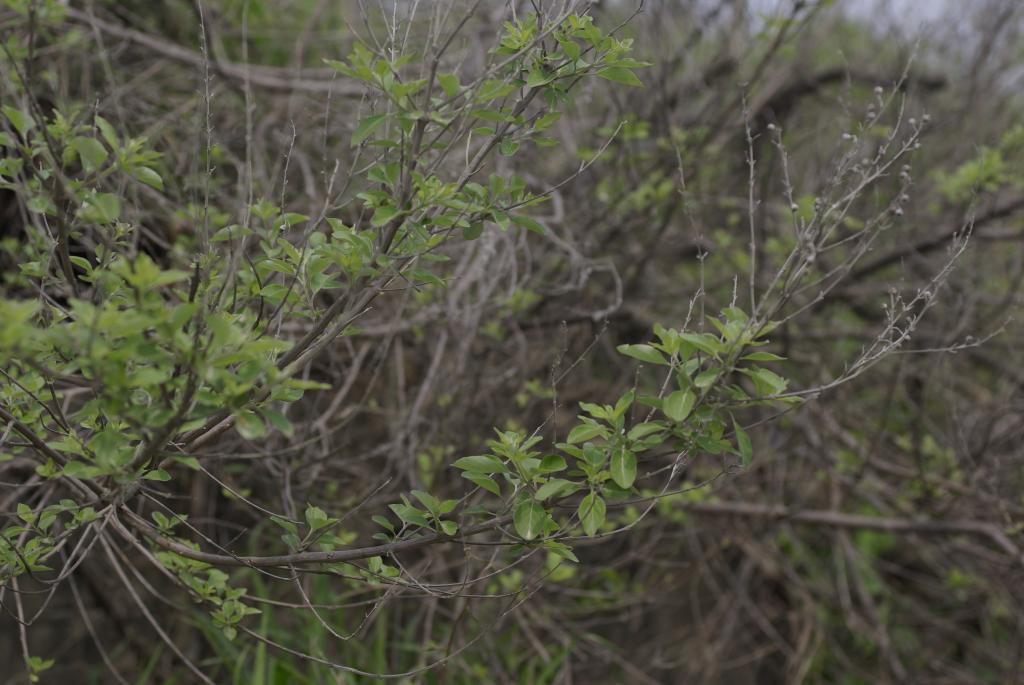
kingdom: Plantae
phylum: Tracheophyta
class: Magnoliopsida
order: Lamiales
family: Lamiaceae
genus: Vitex
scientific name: Vitex trifolia
